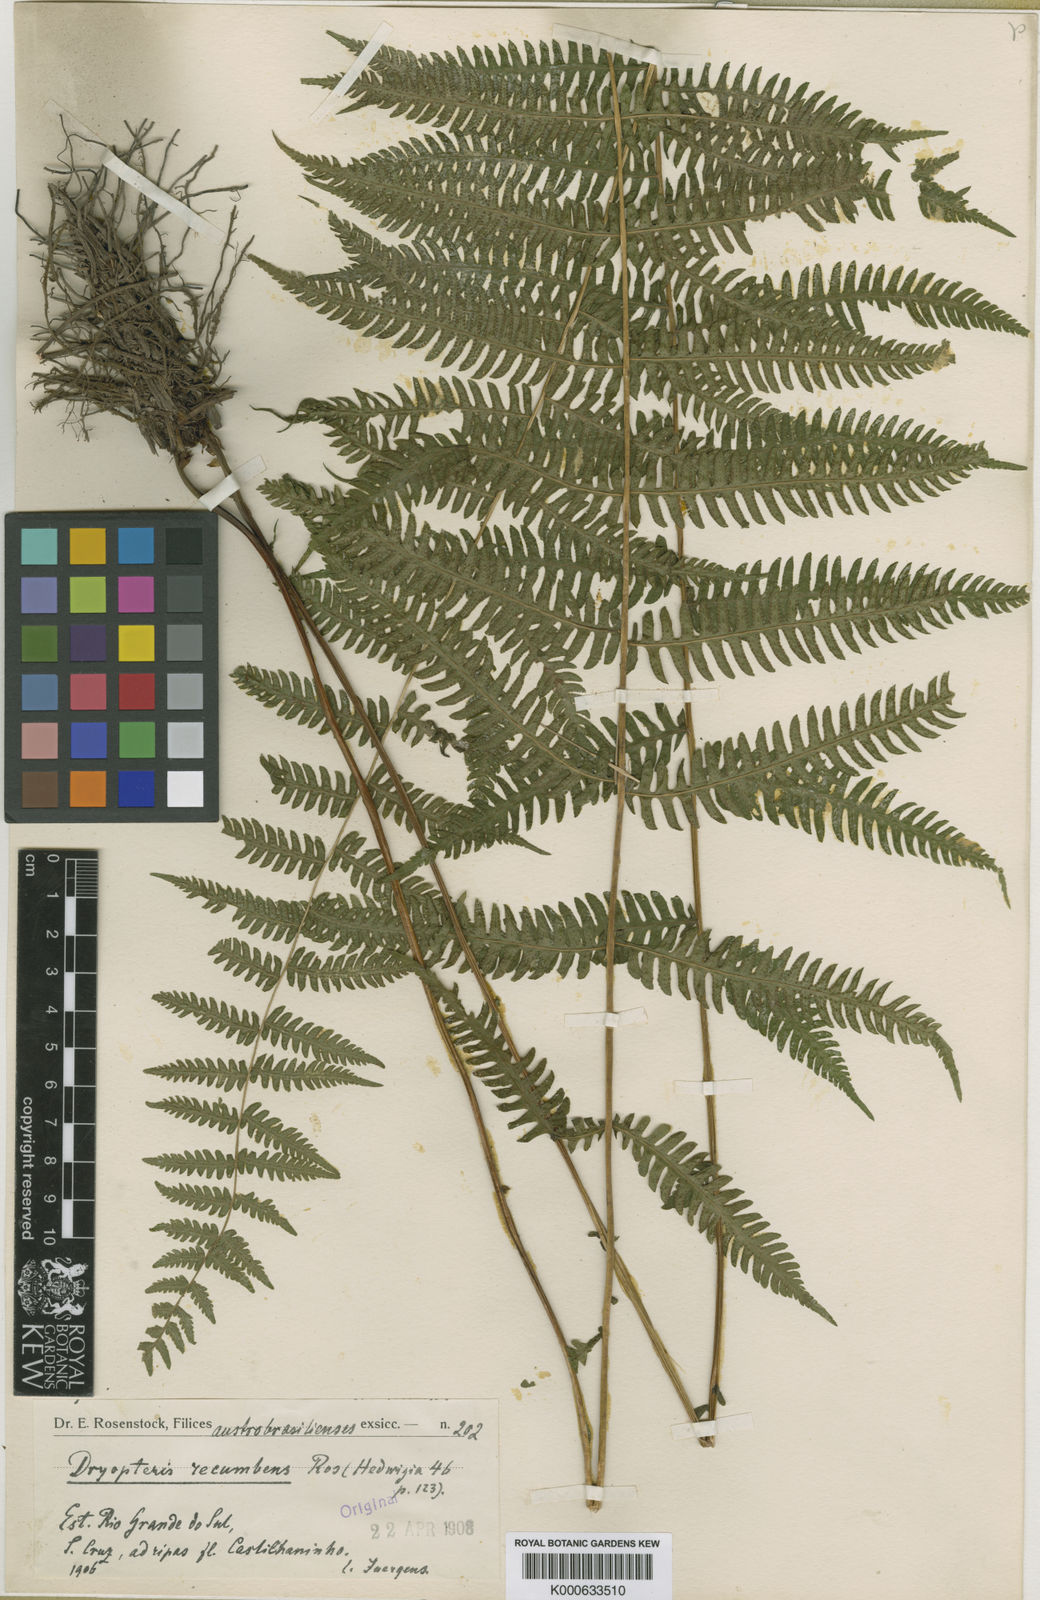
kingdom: Plantae
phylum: Tracheophyta
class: Polypodiopsida
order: Polypodiales
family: Thelypteridaceae
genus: Amauropelta
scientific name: Amauropelta recumbens
